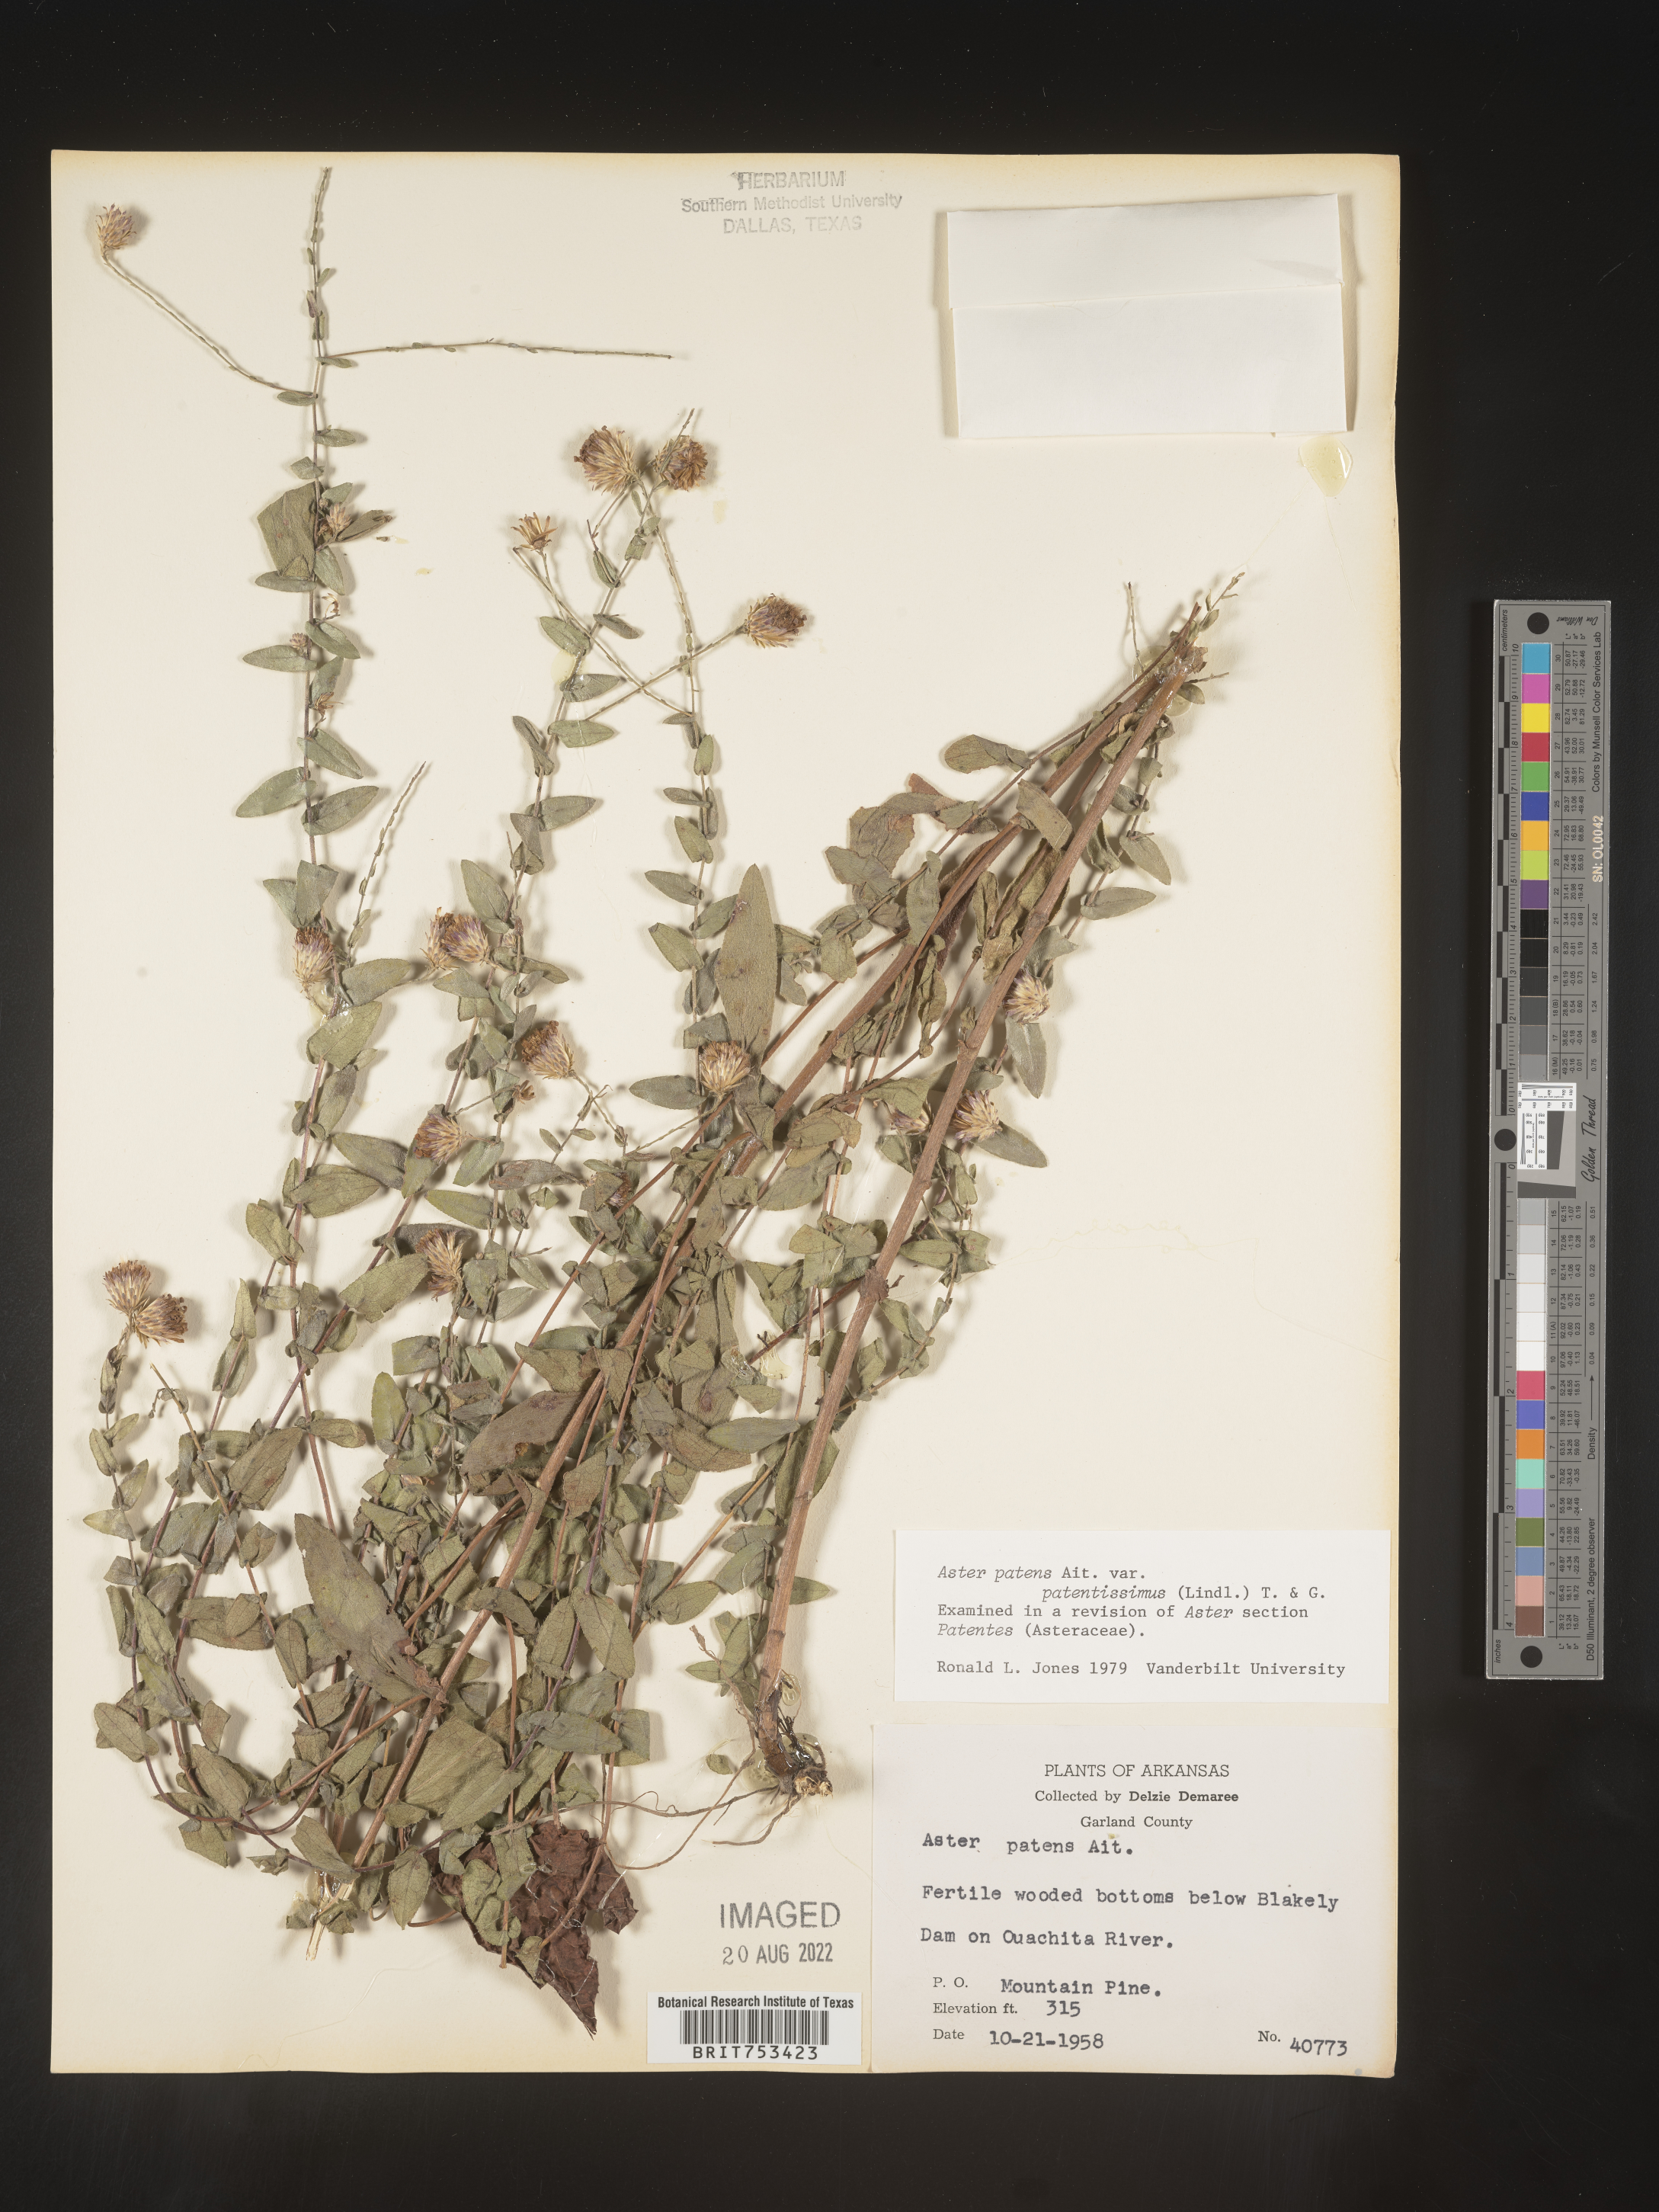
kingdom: Plantae
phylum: Tracheophyta
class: Magnoliopsida
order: Asterales
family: Asteraceae
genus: Symphyotrichum
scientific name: Symphyotrichum patens
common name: Late purple aster
